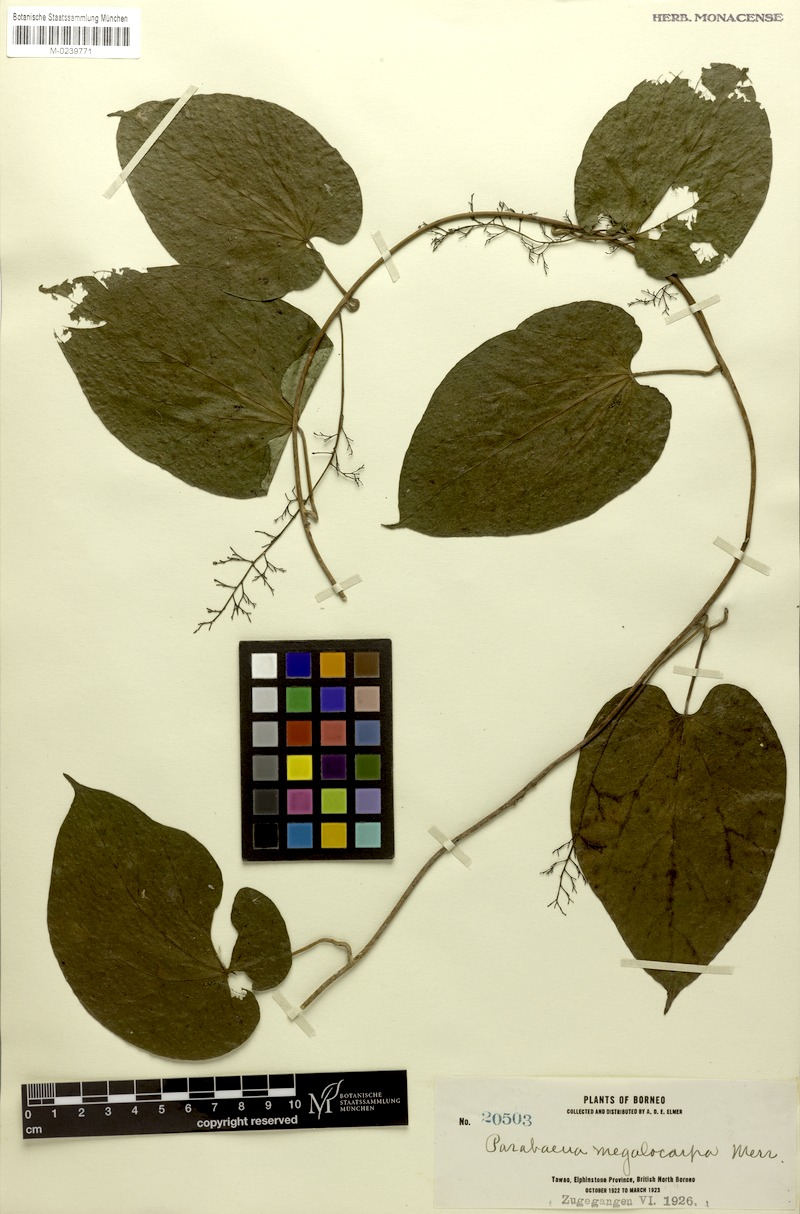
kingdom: Plantae
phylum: Tracheophyta
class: Magnoliopsida
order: Ranunculales
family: Menispermaceae
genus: Parabaena
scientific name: Parabaena megalocarpa
